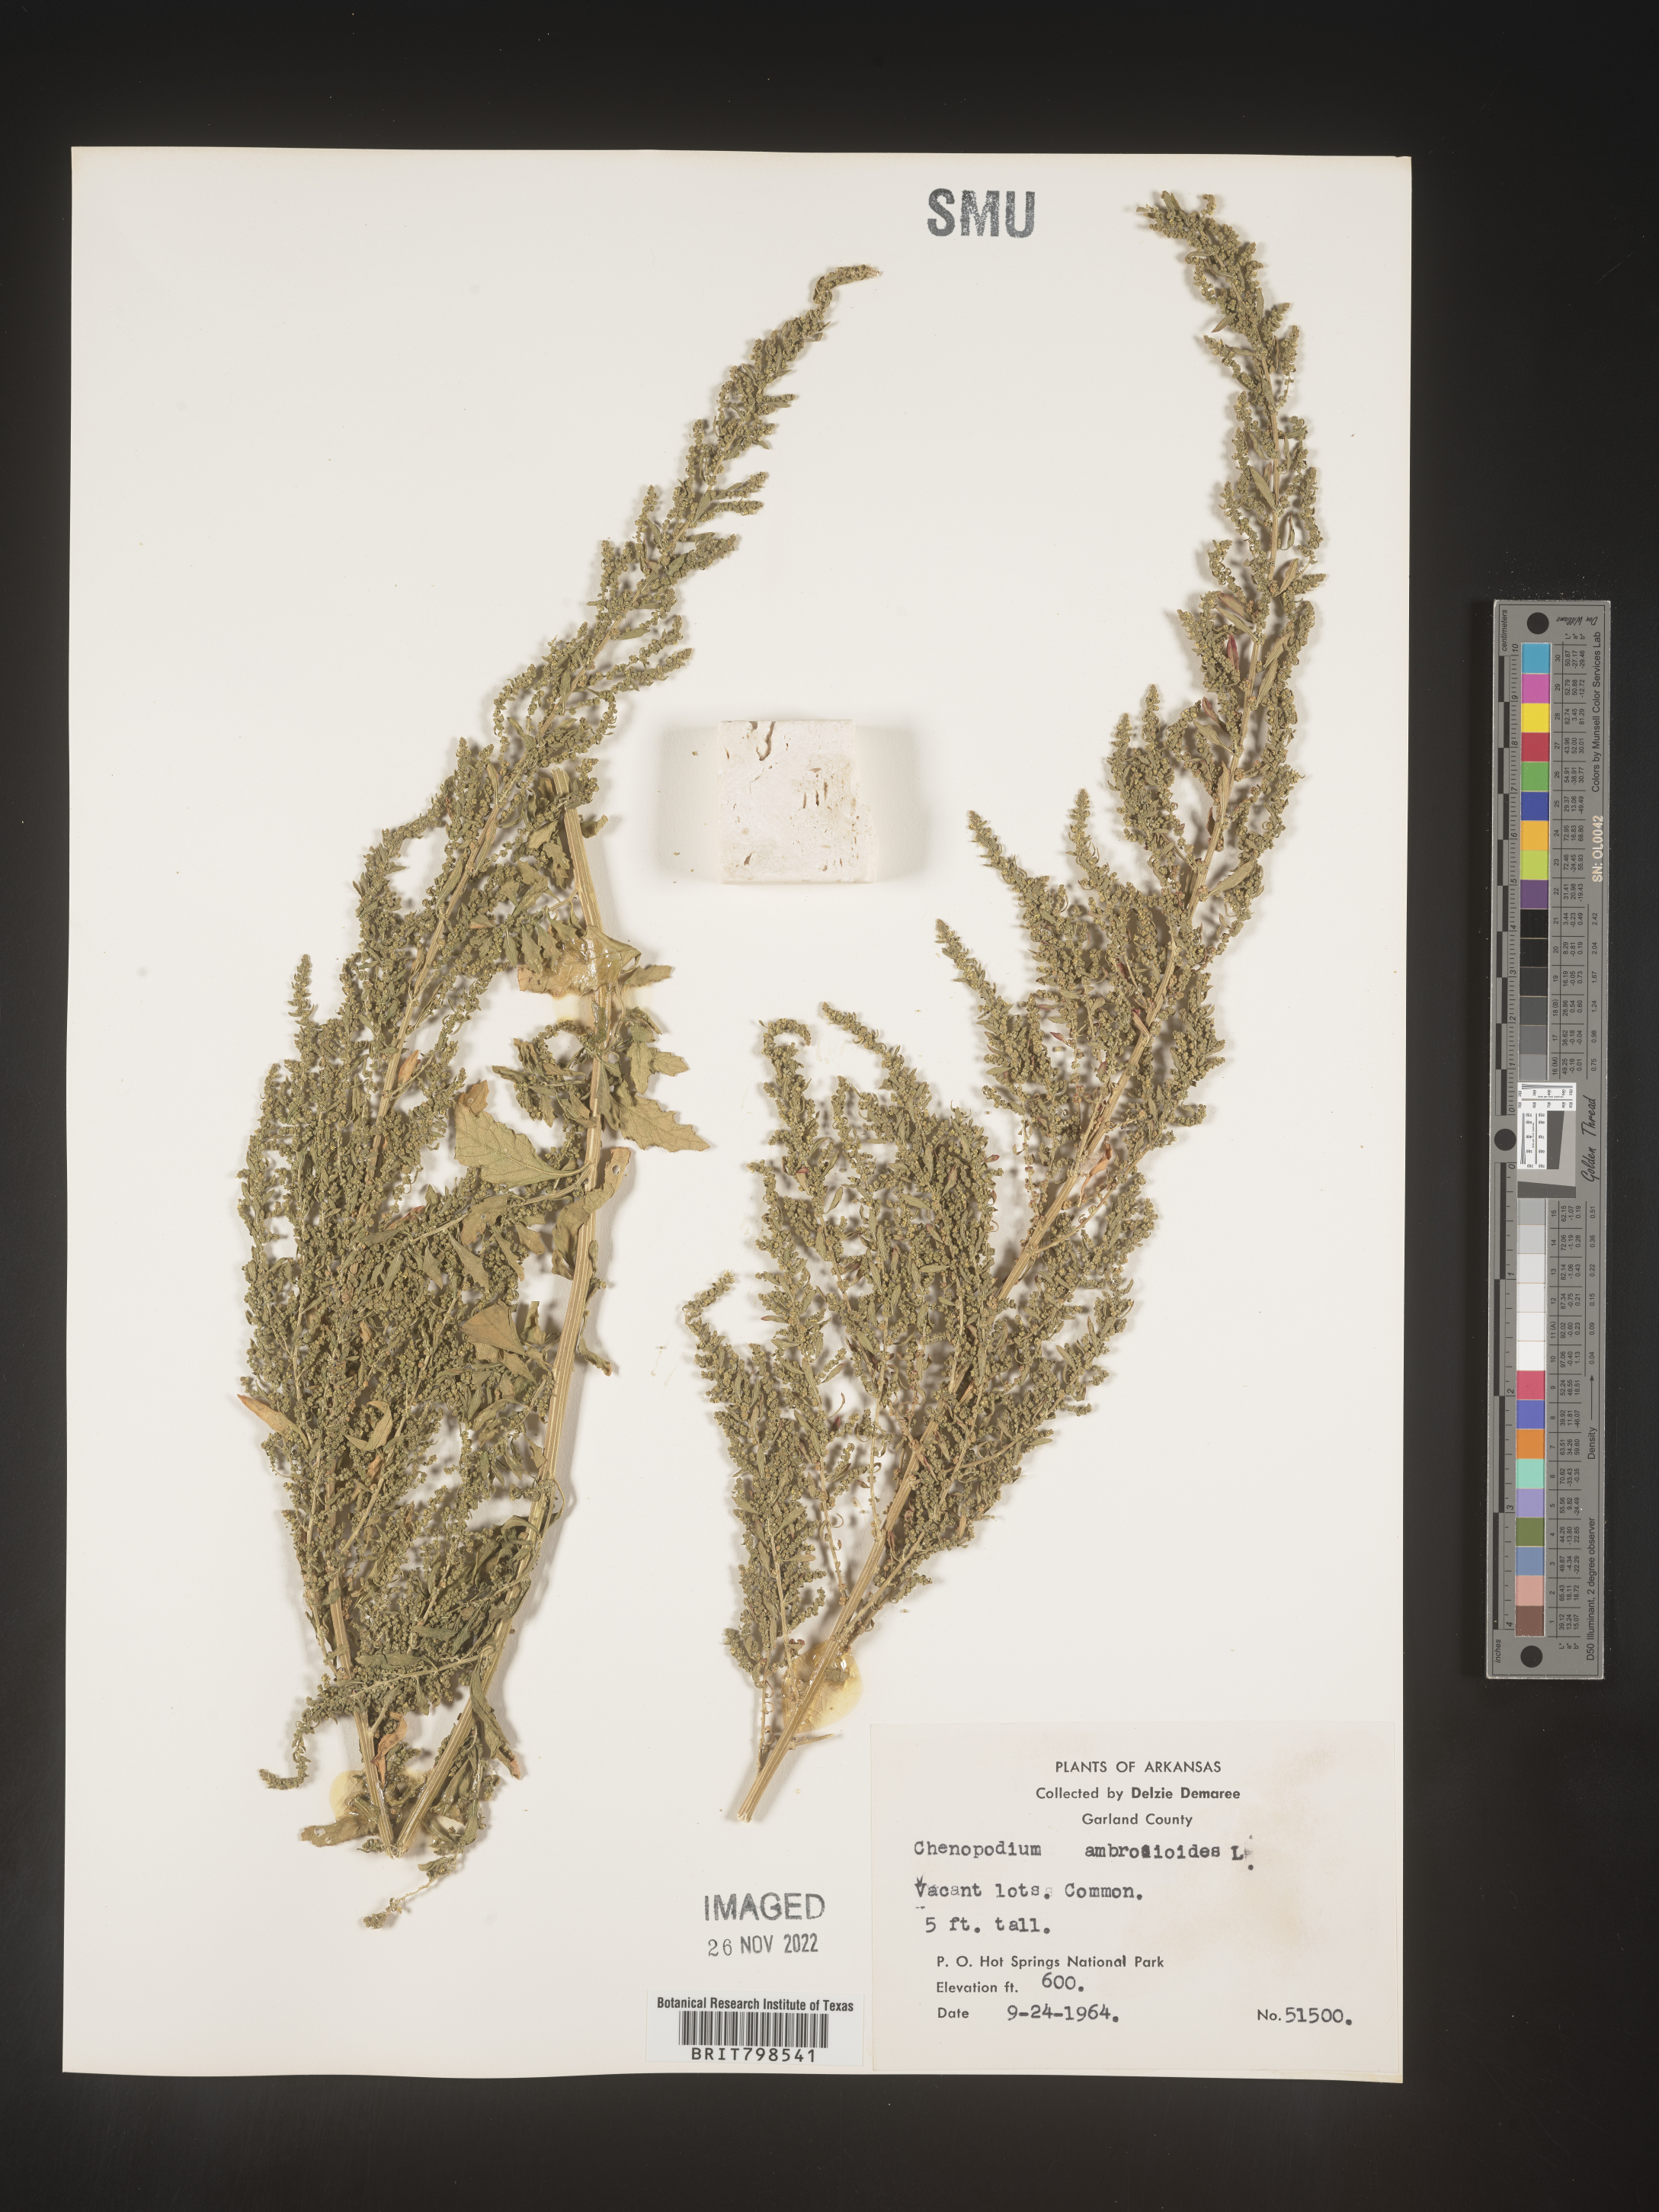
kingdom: Plantae
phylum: Tracheophyta
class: Magnoliopsida
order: Caryophyllales
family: Amaranthaceae
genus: Dysphania
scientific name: Dysphania ambrosioides
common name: Wormseed
